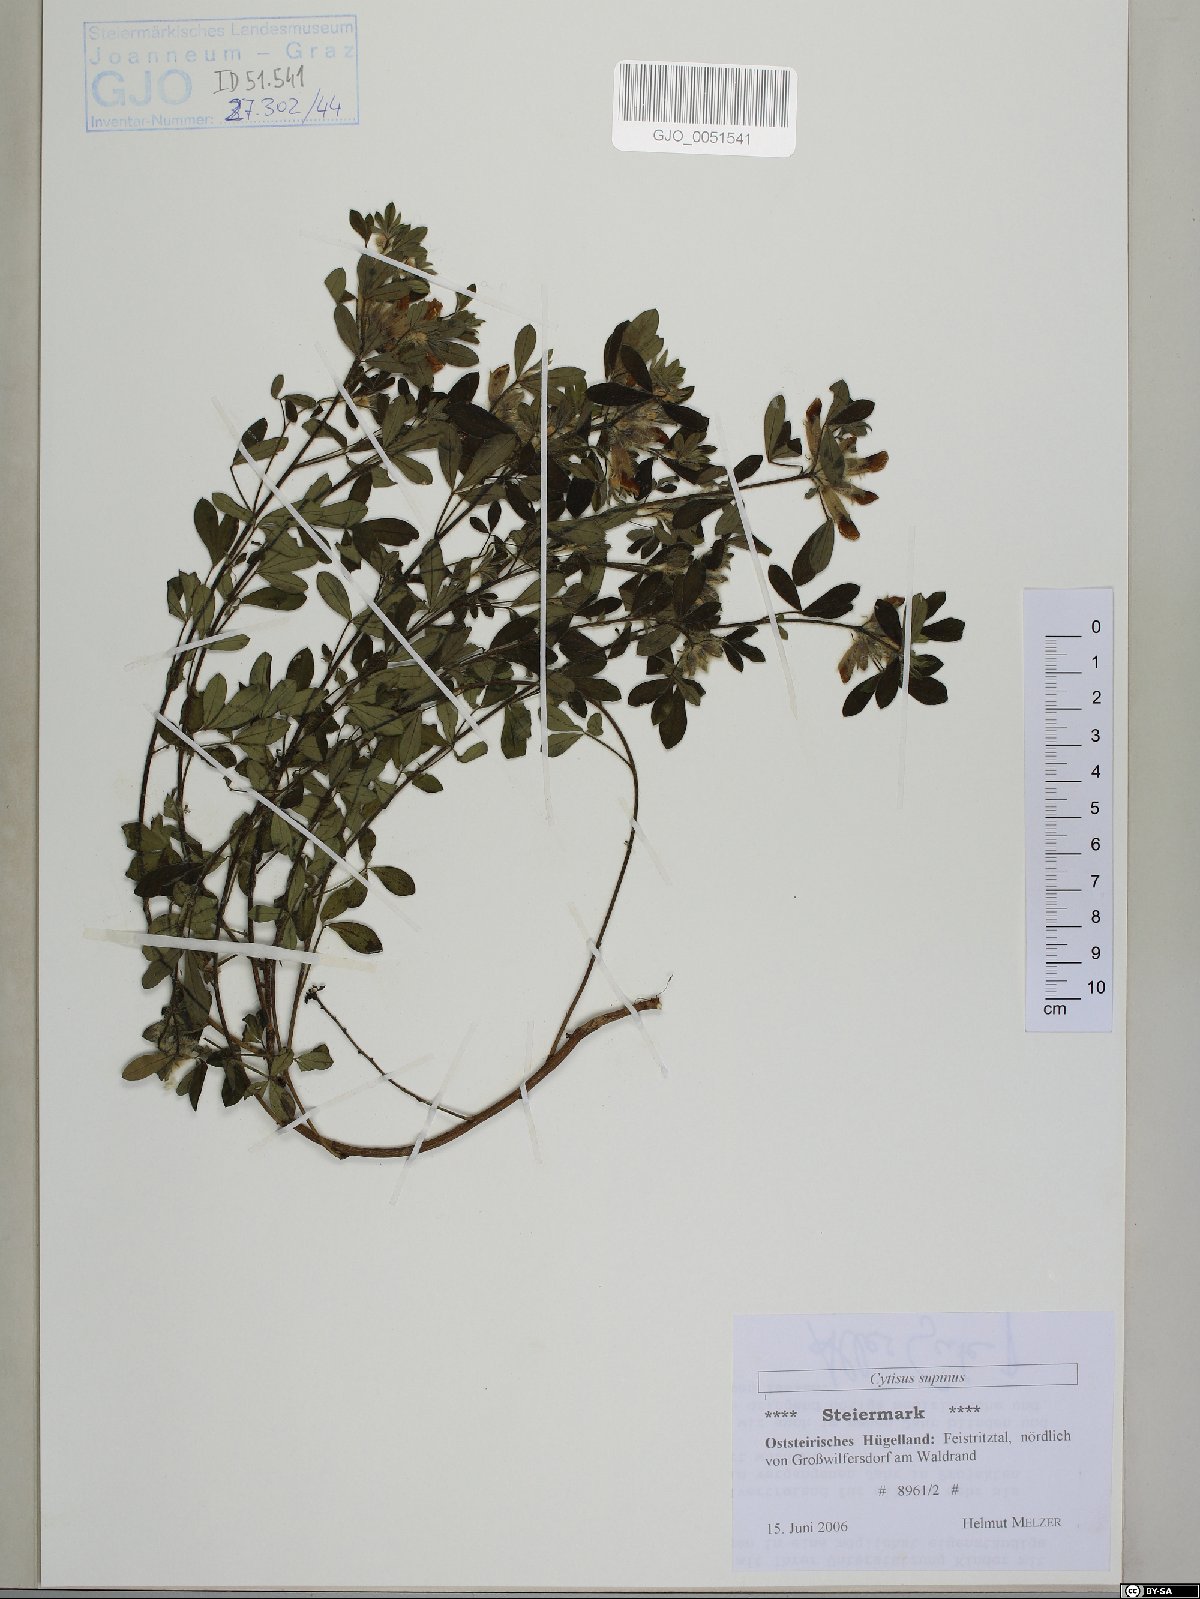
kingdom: Plantae
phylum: Tracheophyta
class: Magnoliopsida
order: Fabales
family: Fabaceae
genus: Chamaecytisus
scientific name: Chamaecytisus supinus
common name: Clustered broom
